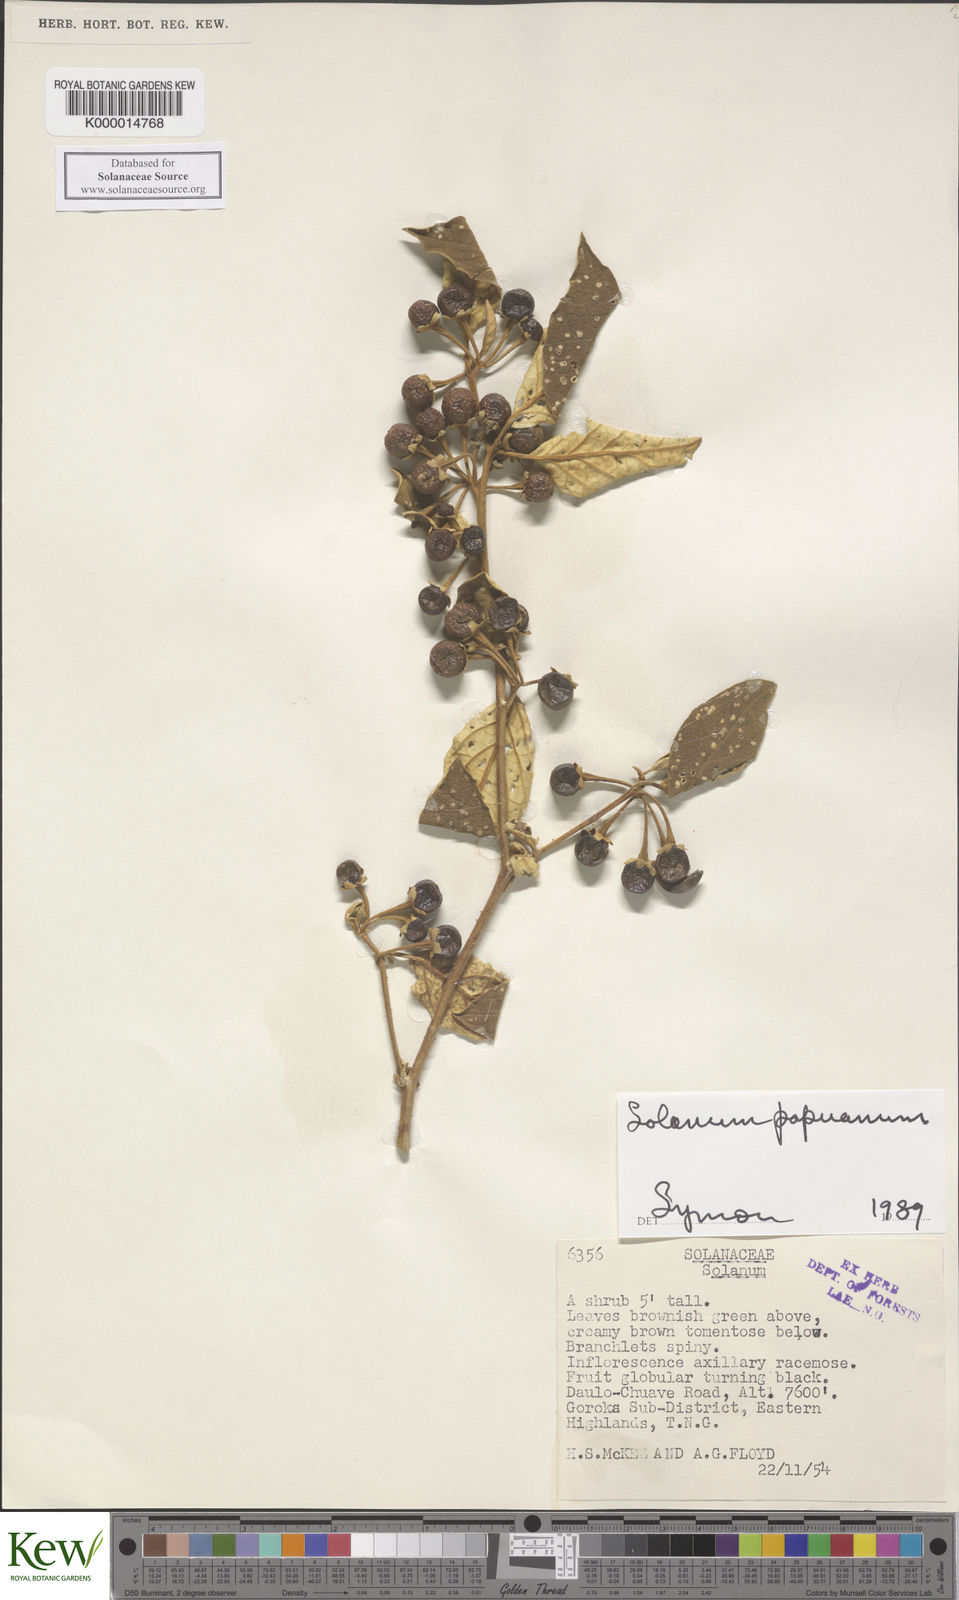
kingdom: Plantae
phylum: Tracheophyta
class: Magnoliopsida
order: Solanales
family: Solanaceae
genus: Solanum
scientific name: Solanum papuanum
